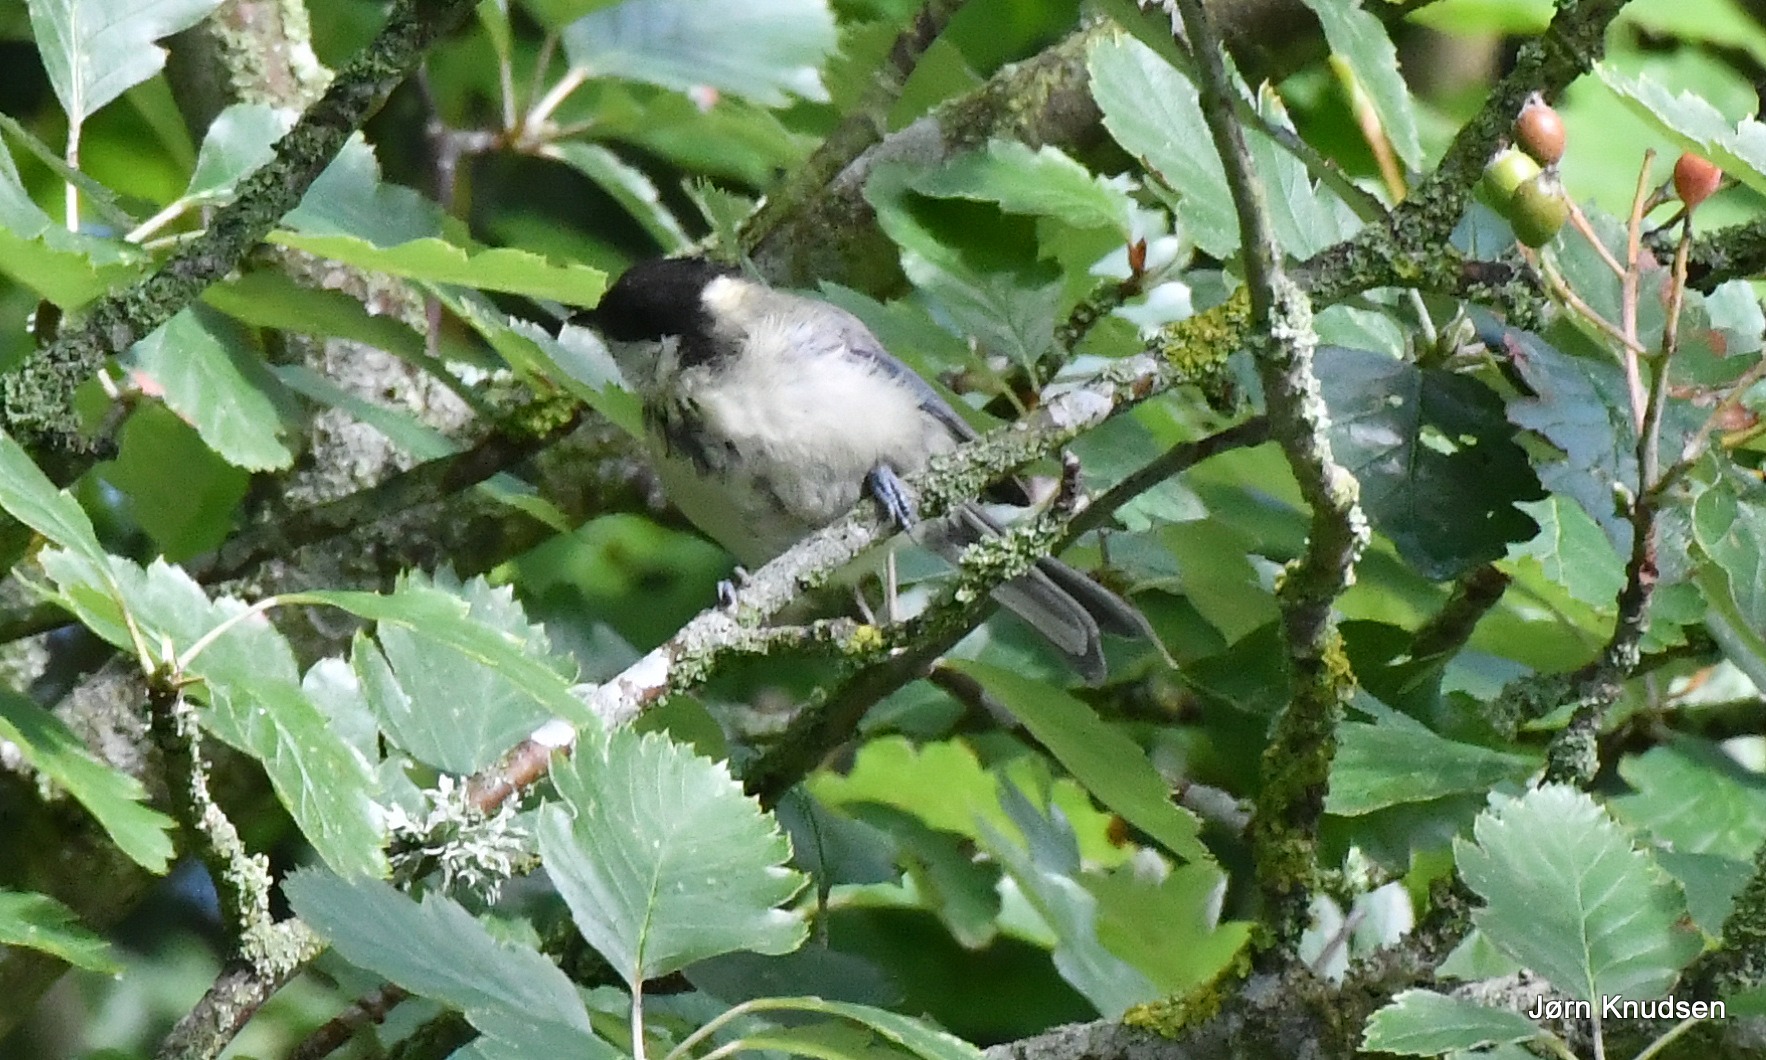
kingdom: Animalia
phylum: Chordata
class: Aves
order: Passeriformes
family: Paridae
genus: Parus
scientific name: Parus major
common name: Musvit
